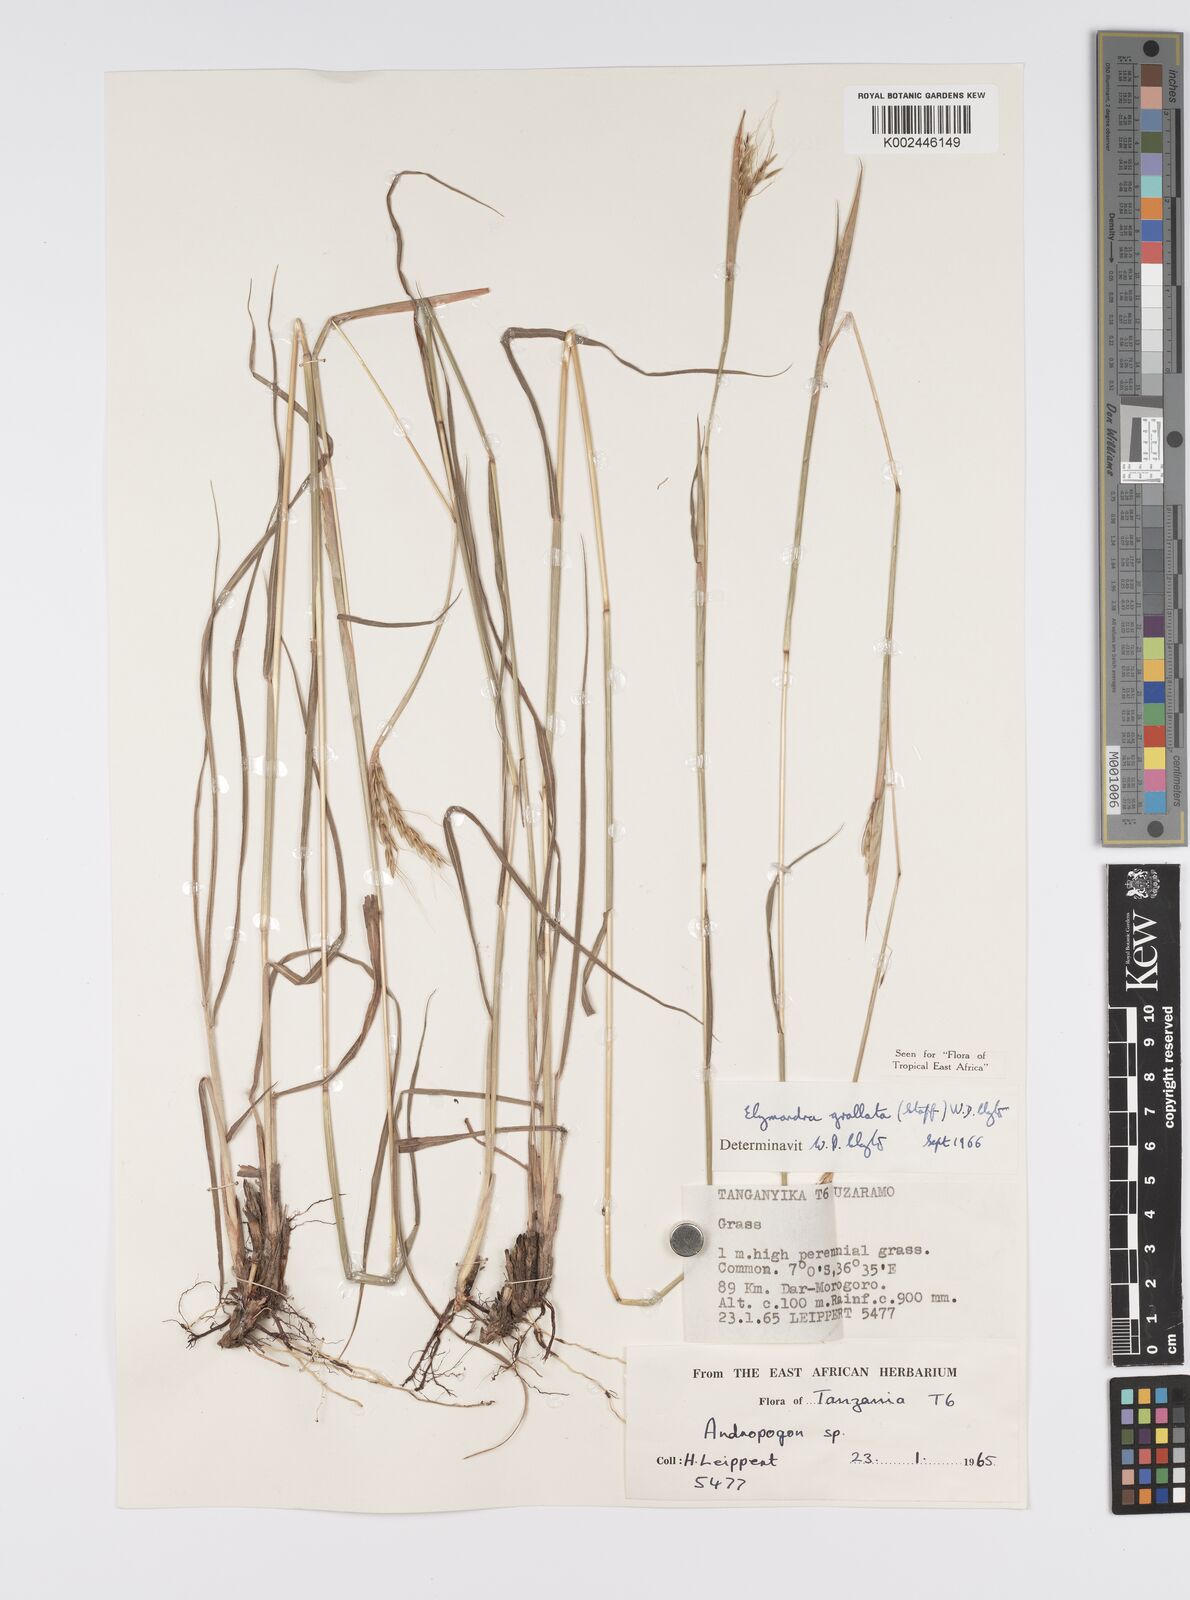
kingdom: Plantae
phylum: Tracheophyta
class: Liliopsida
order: Poales
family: Poaceae
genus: Elymandra
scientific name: Elymandra grallata
